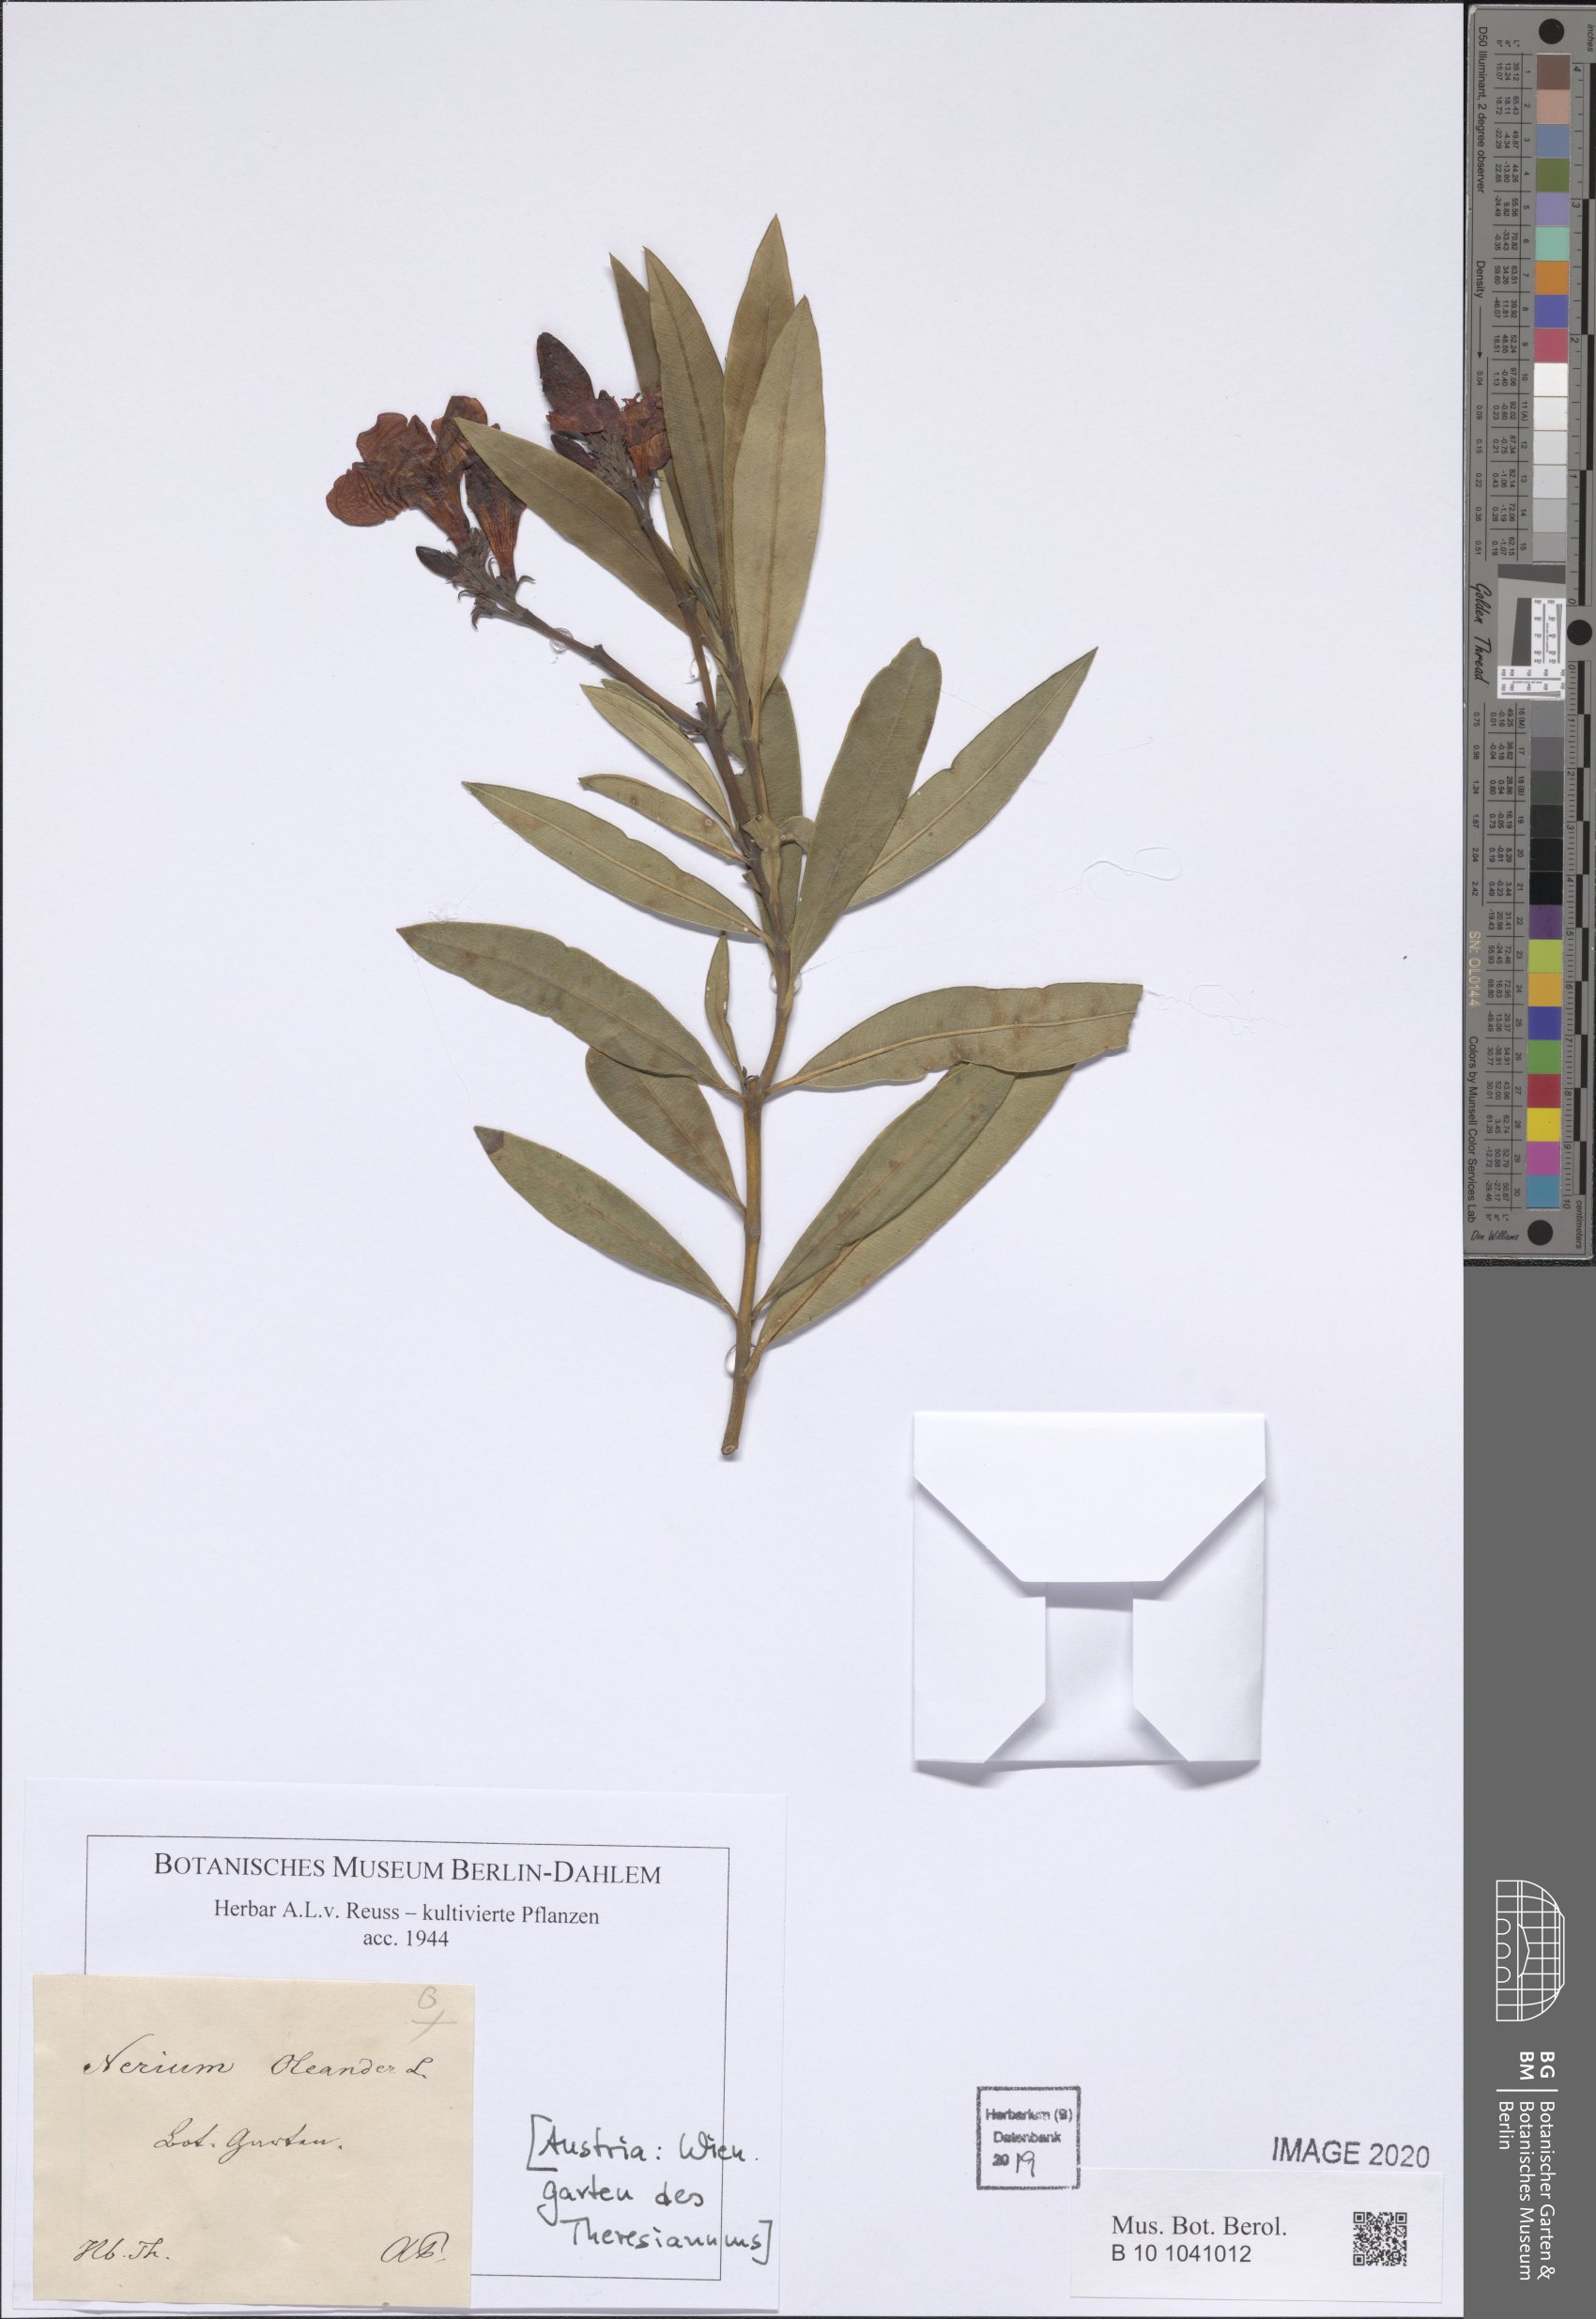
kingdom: Plantae
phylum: Tracheophyta
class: Magnoliopsida
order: Gentianales
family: Apocynaceae
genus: Nerium
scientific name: Nerium oleander
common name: Oleander
